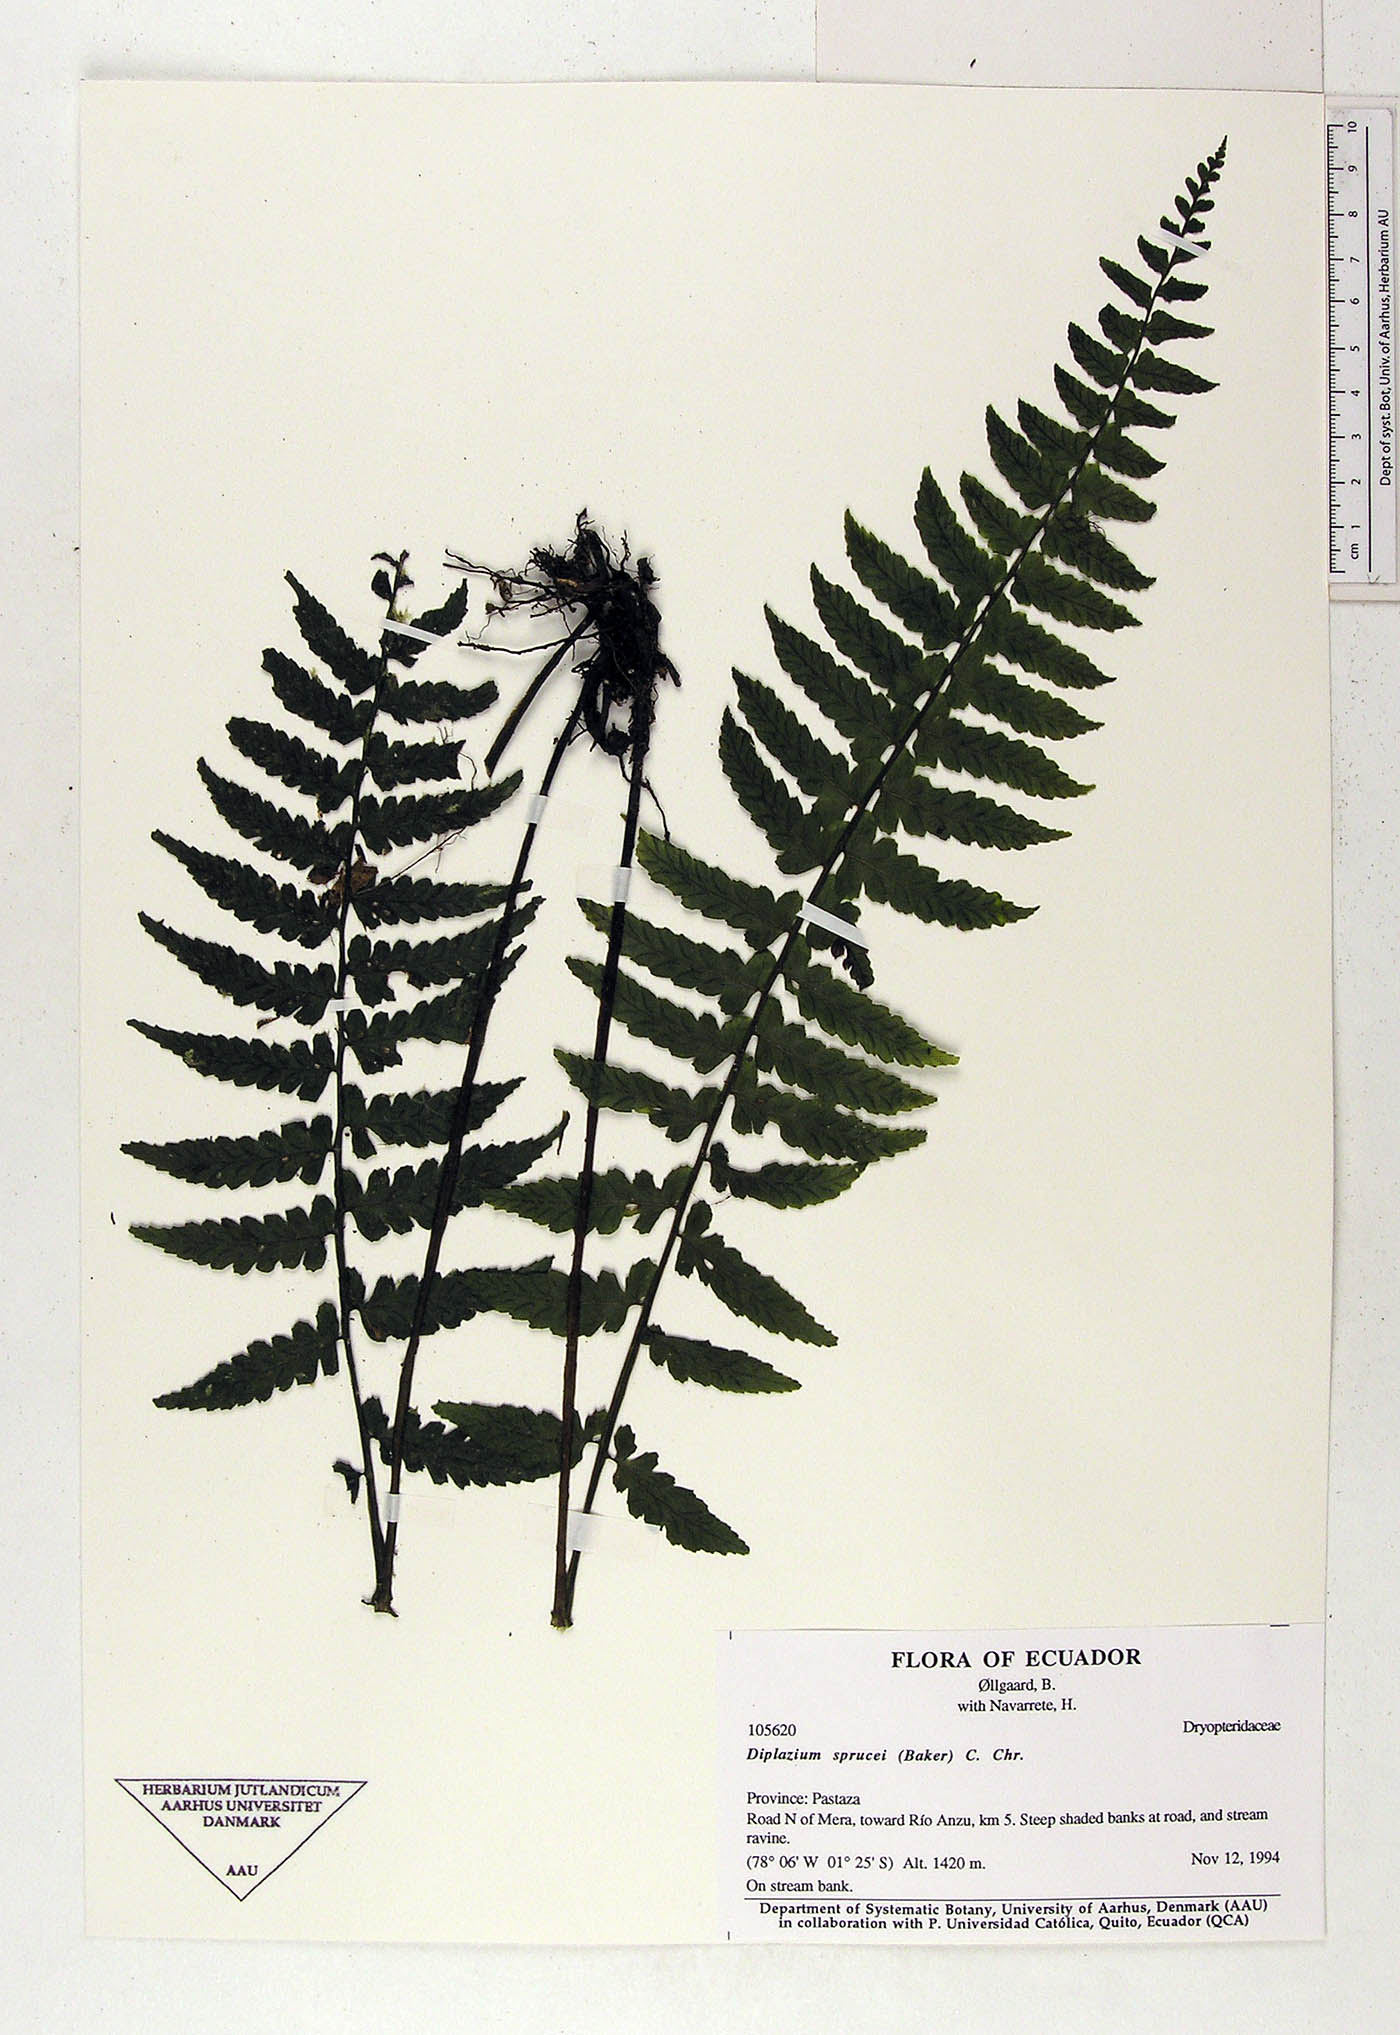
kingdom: Plantae
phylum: Tracheophyta
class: Polypodiopsida
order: Polypodiales
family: Athyriaceae
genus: Diplazium
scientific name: Diplazium sprucei
